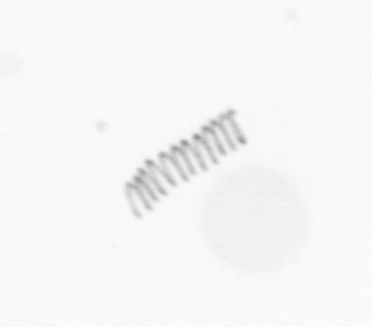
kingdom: Chromista
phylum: Ochrophyta
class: Bacillariophyceae
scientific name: Bacillariophyceae
